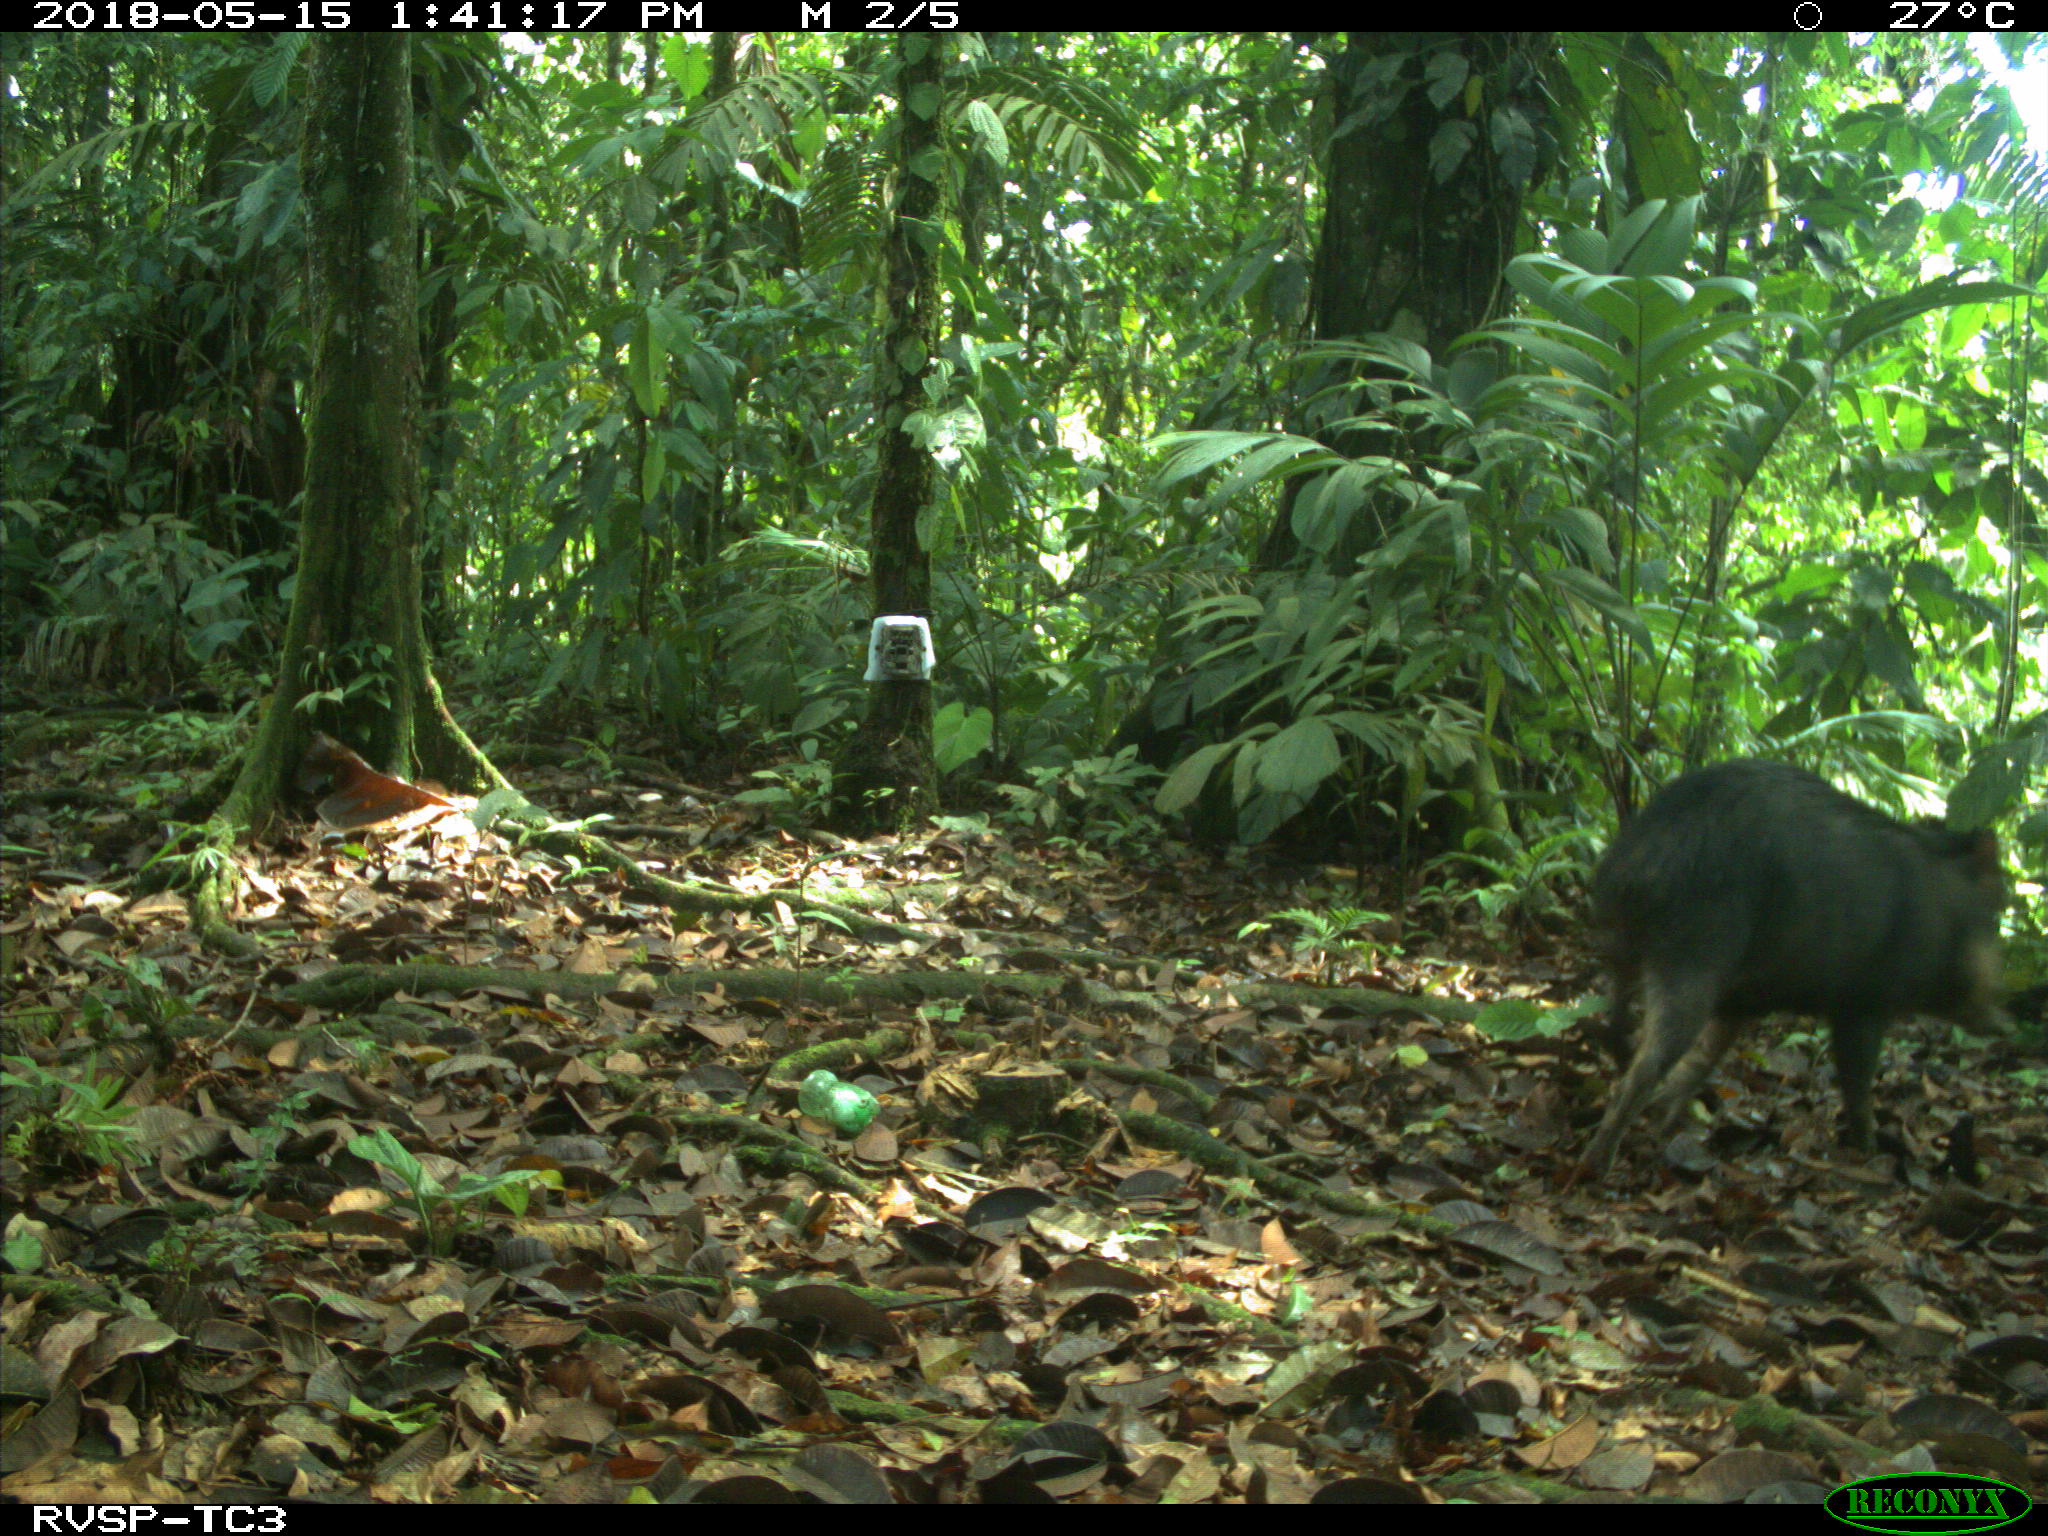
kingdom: Animalia
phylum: Chordata
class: Mammalia
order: Artiodactyla
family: Tayassuidae
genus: Tayassu
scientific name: Tayassu pecari
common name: White-lipped peccary
